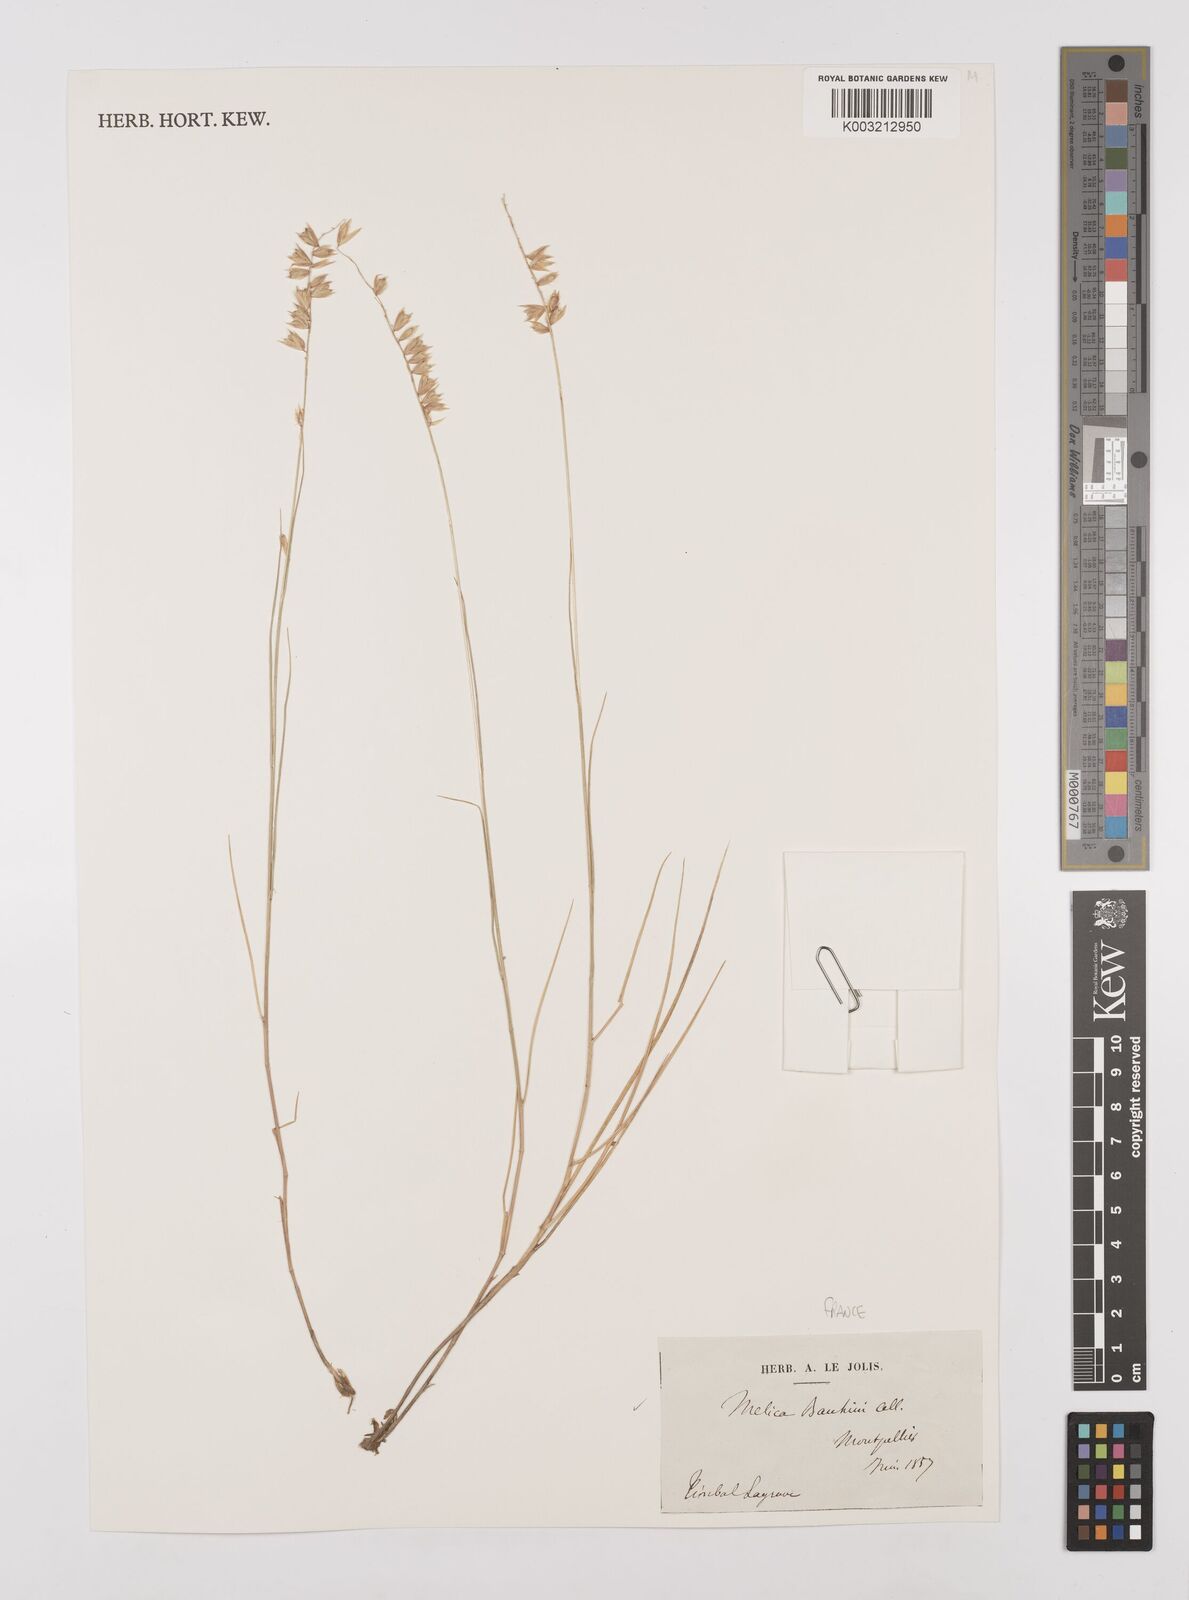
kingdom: Plantae
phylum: Tracheophyta
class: Liliopsida
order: Poales
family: Poaceae
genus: Melica
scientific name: Melica amethystina
